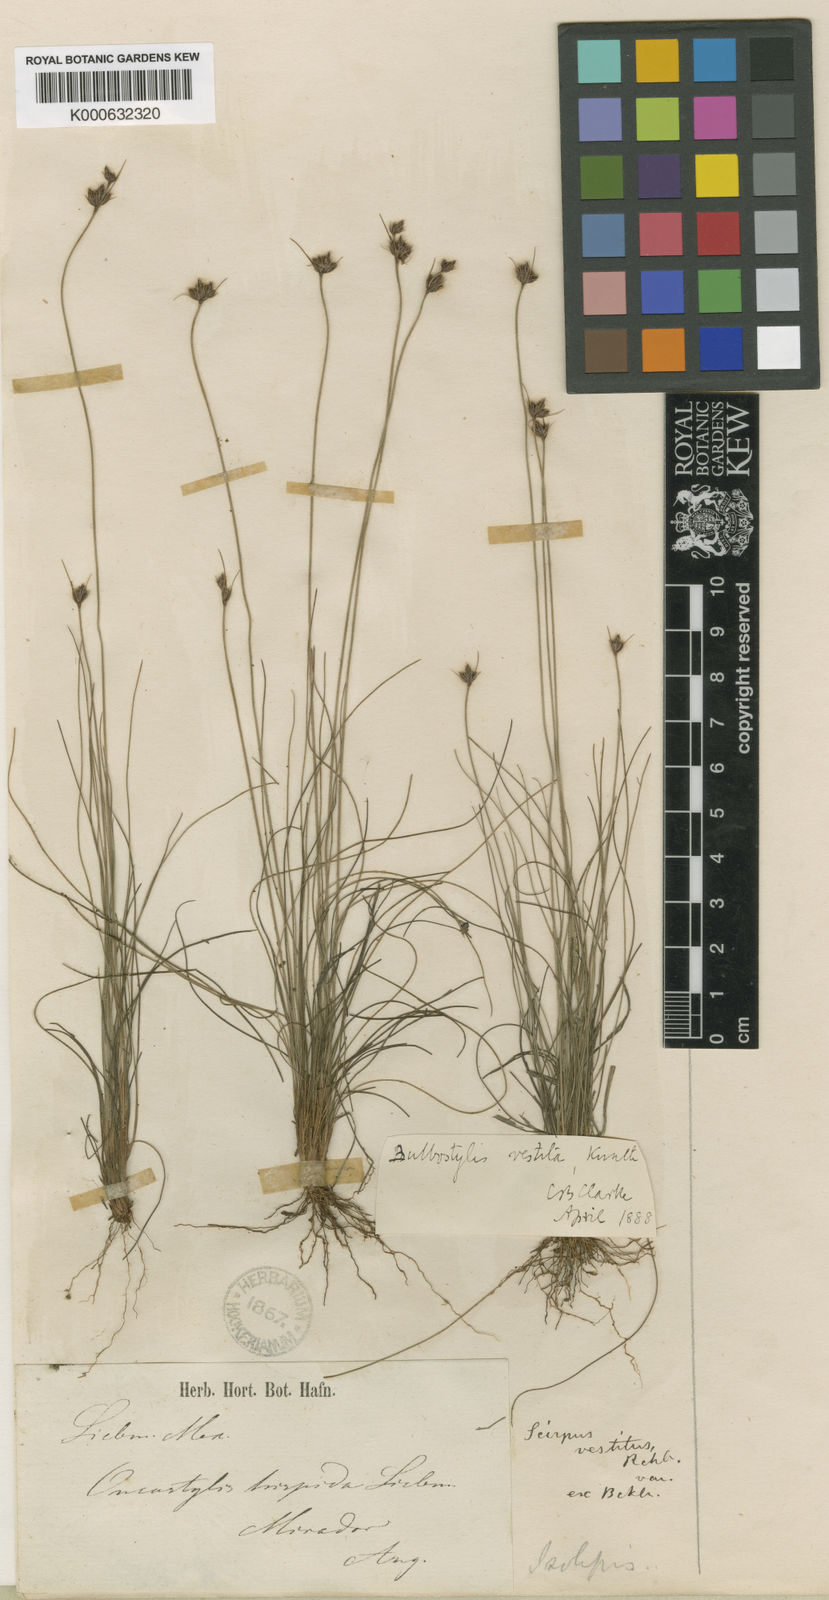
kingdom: Plantae
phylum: Tracheophyta
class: Liliopsida
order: Poales
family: Cyperaceae
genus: Bulbostylis
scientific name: Bulbostylis vestita
